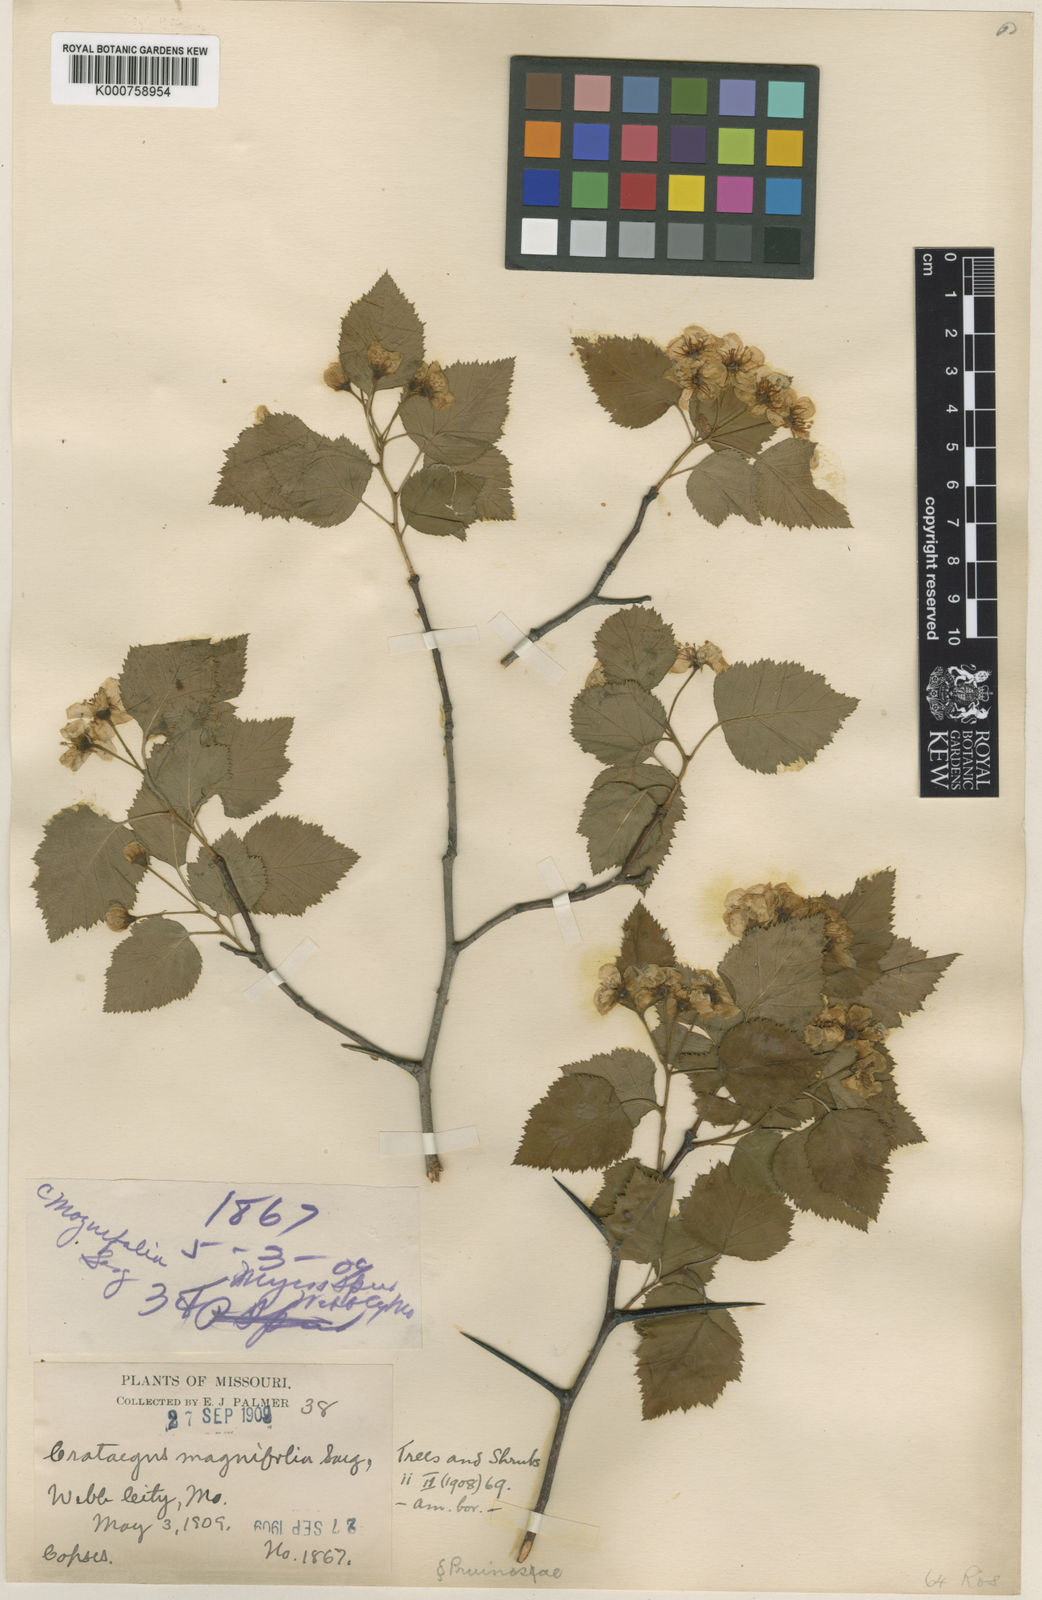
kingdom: Plantae
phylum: Tracheophyta
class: Magnoliopsida
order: Rosales
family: Rosaceae
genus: Crataegus
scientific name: Crataegus pruinosa
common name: Waxy-fruit hawthorn
